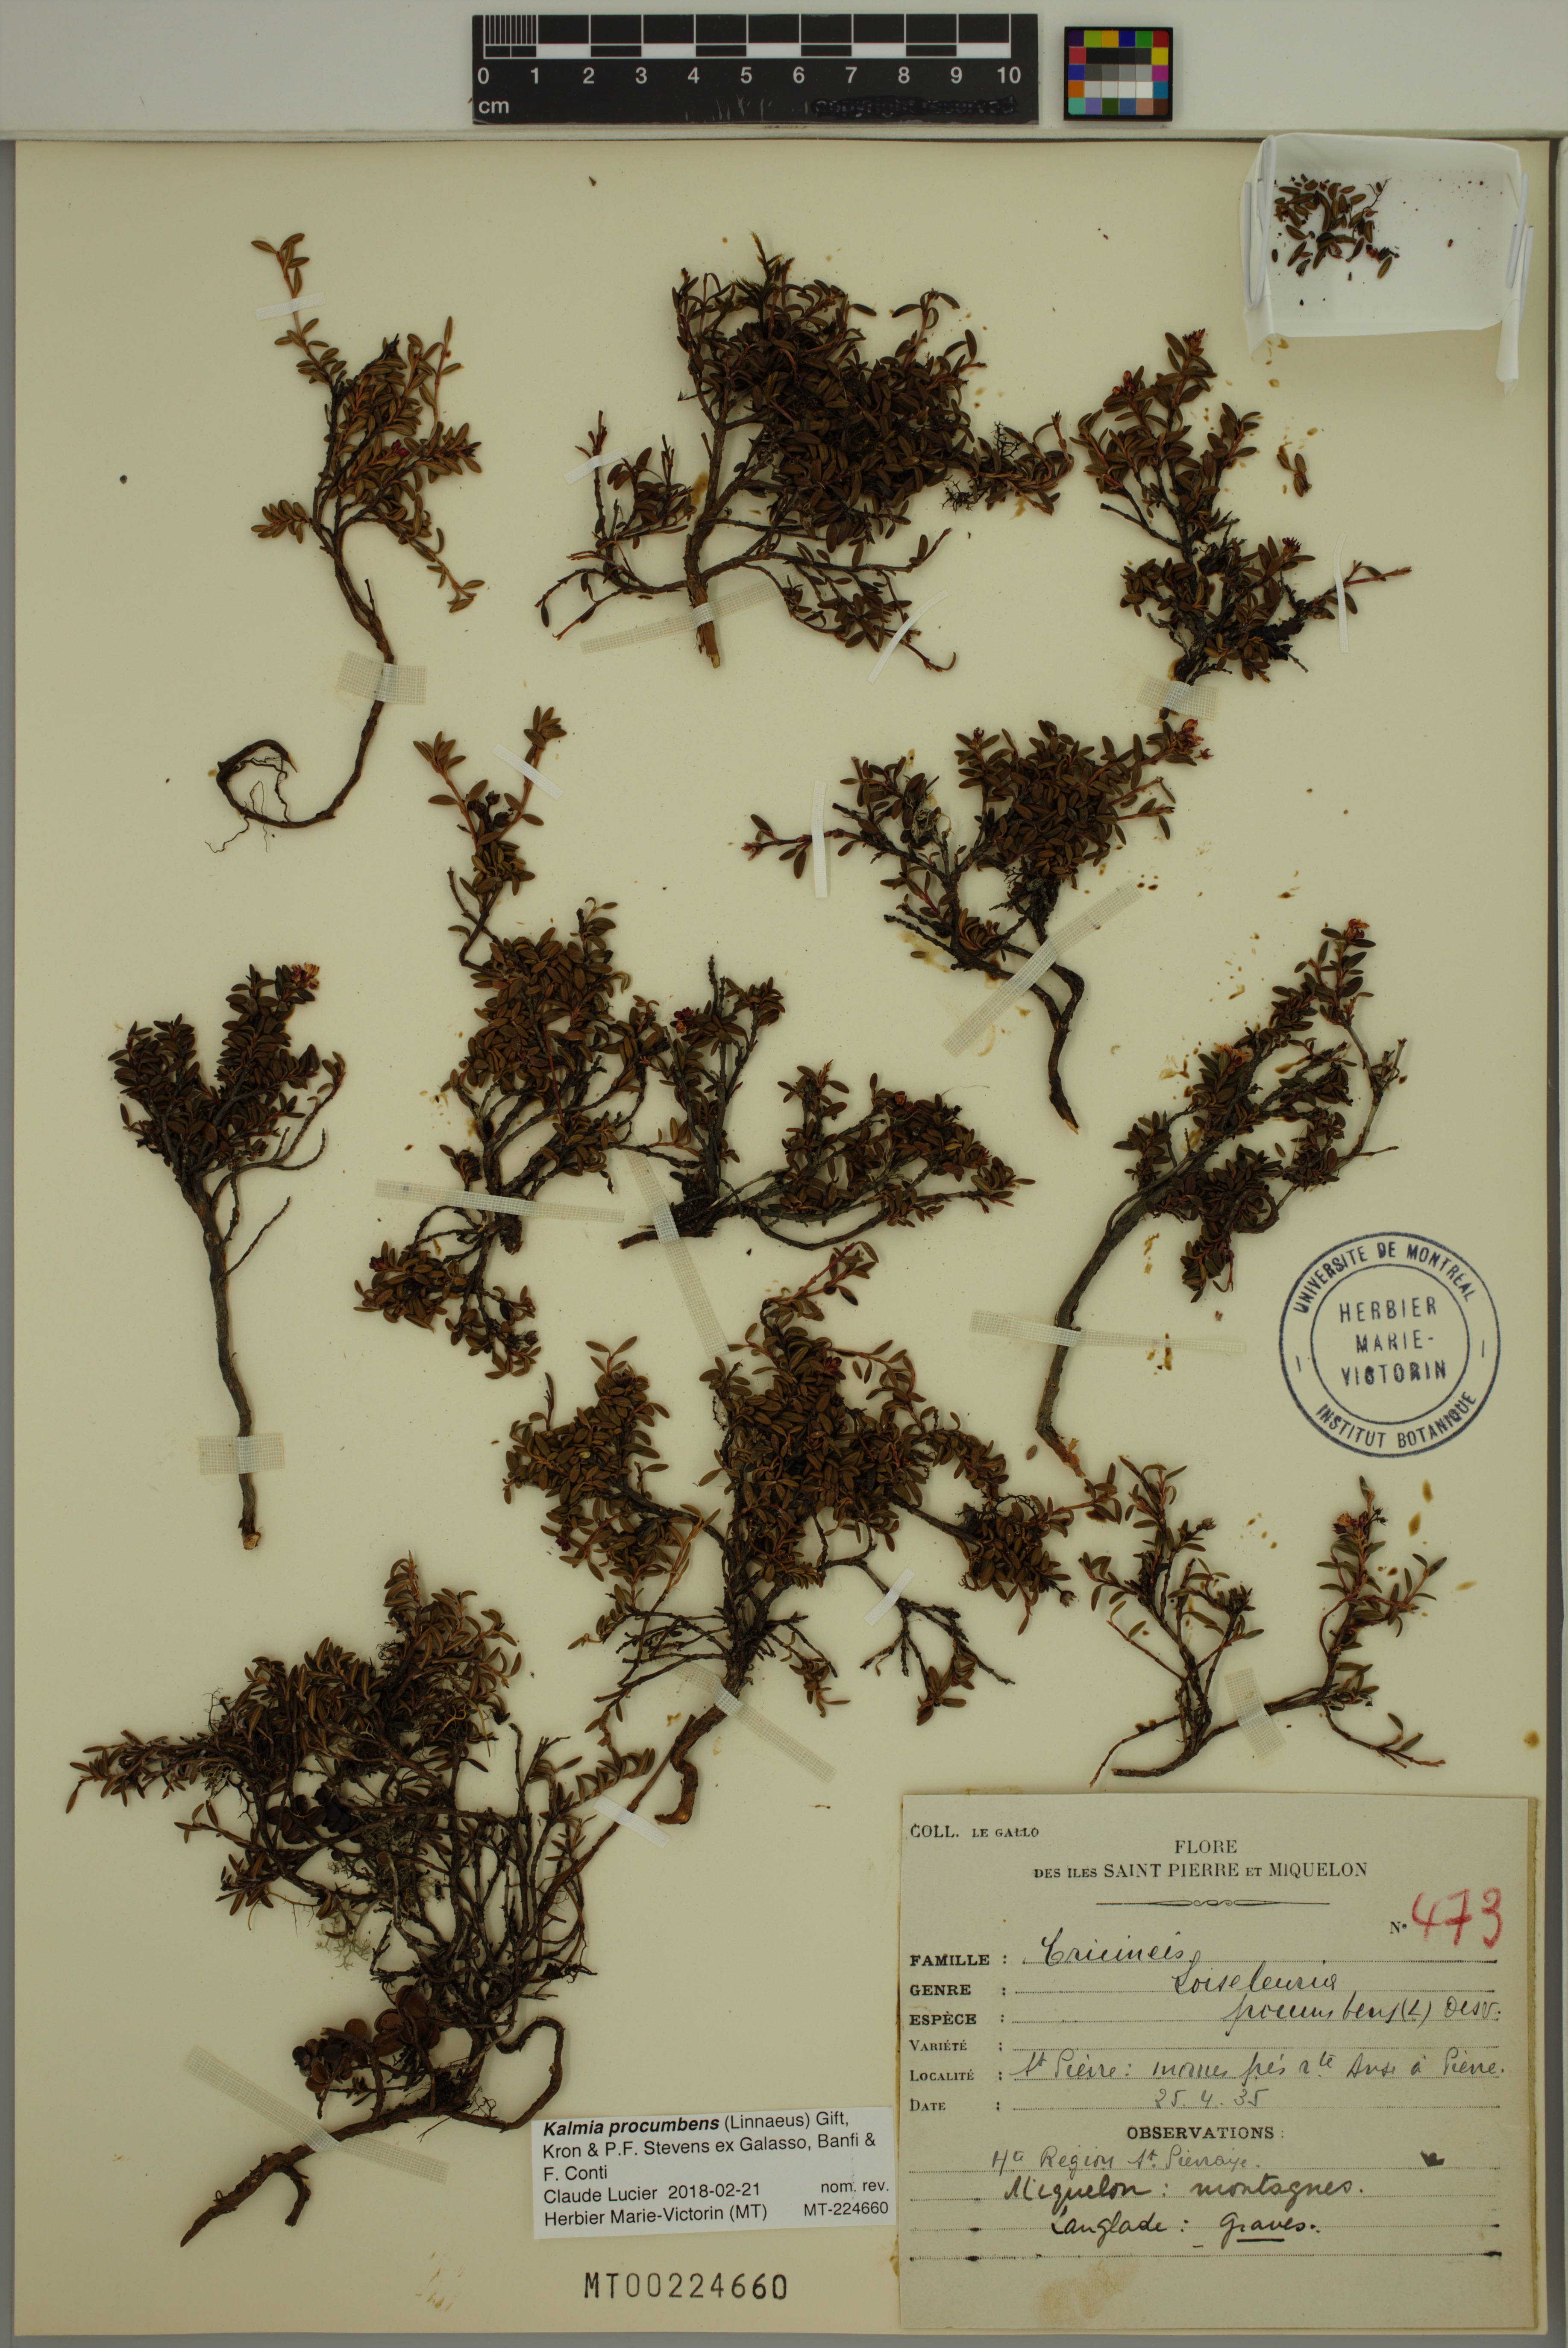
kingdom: Plantae
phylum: Tracheophyta
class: Magnoliopsida
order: Ericales
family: Ericaceae
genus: Kalmia
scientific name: Kalmia procumbens
